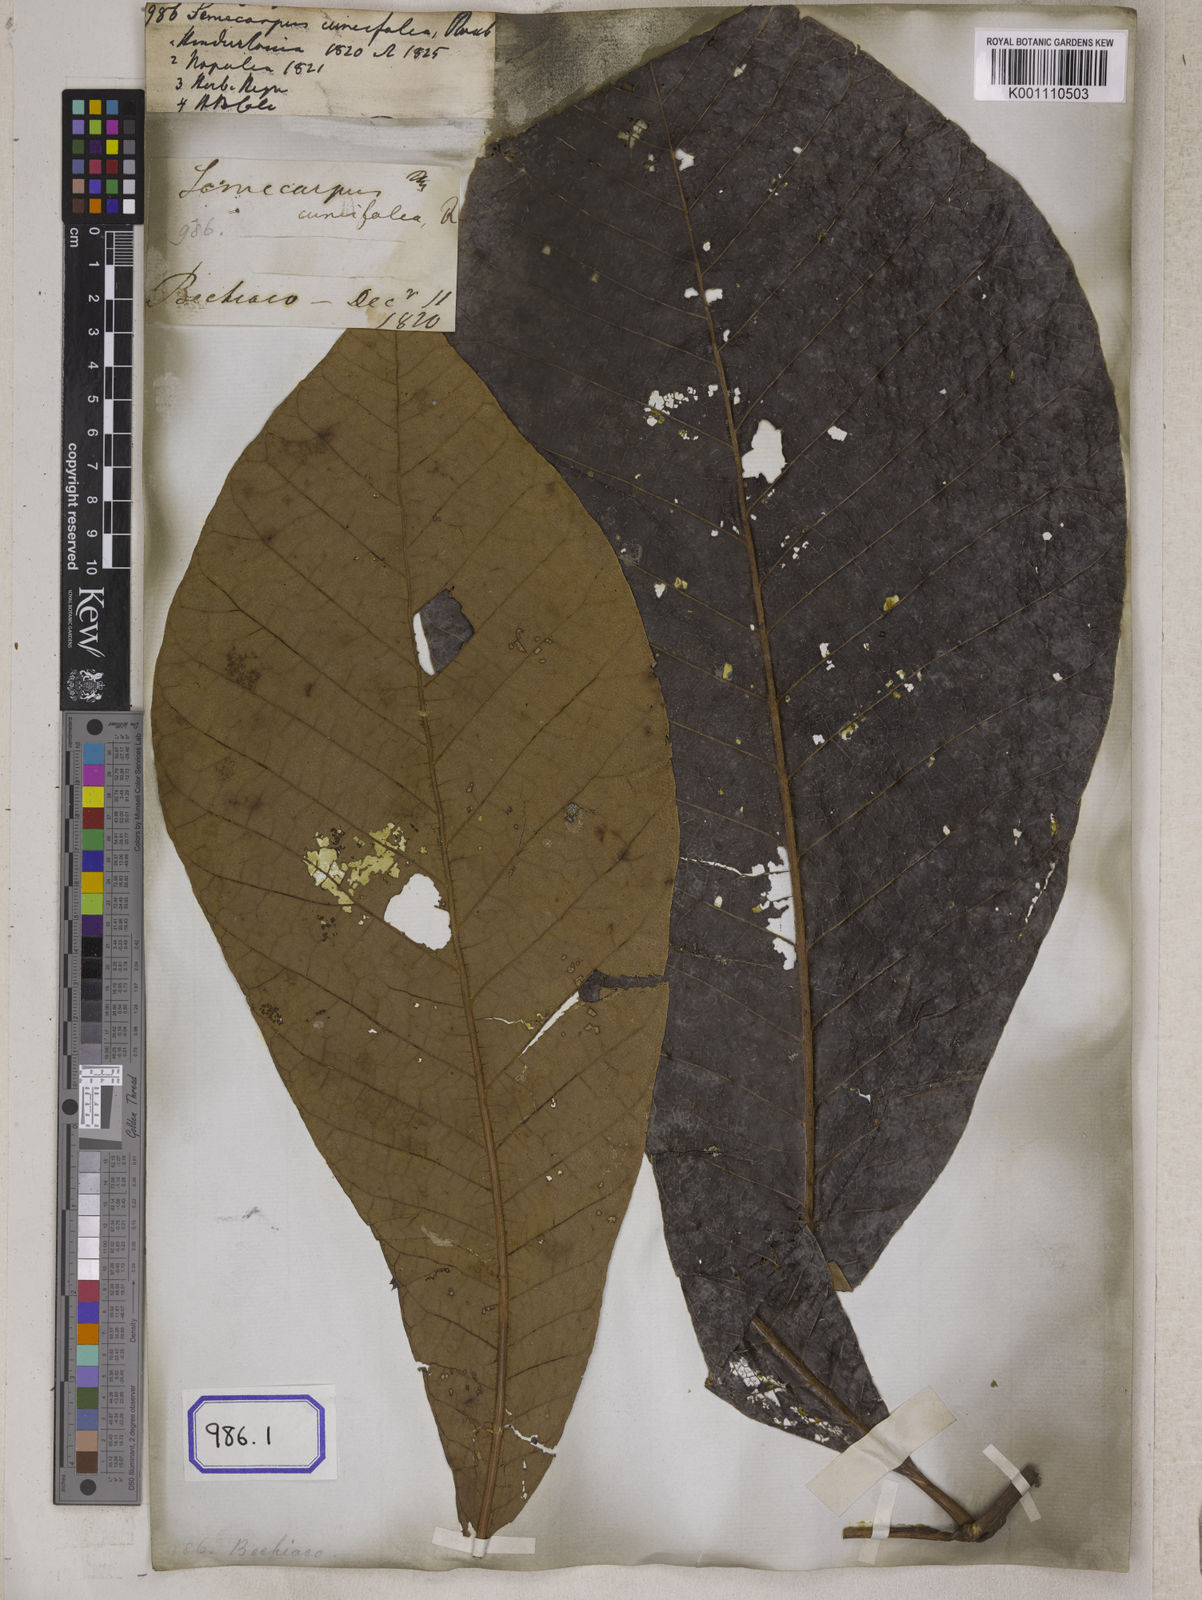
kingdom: Plantae
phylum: Tracheophyta
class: Magnoliopsida
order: Sapindales
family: Anacardiaceae
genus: Semecarpus
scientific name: Semecarpus anacardium
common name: Marking nut-tree
